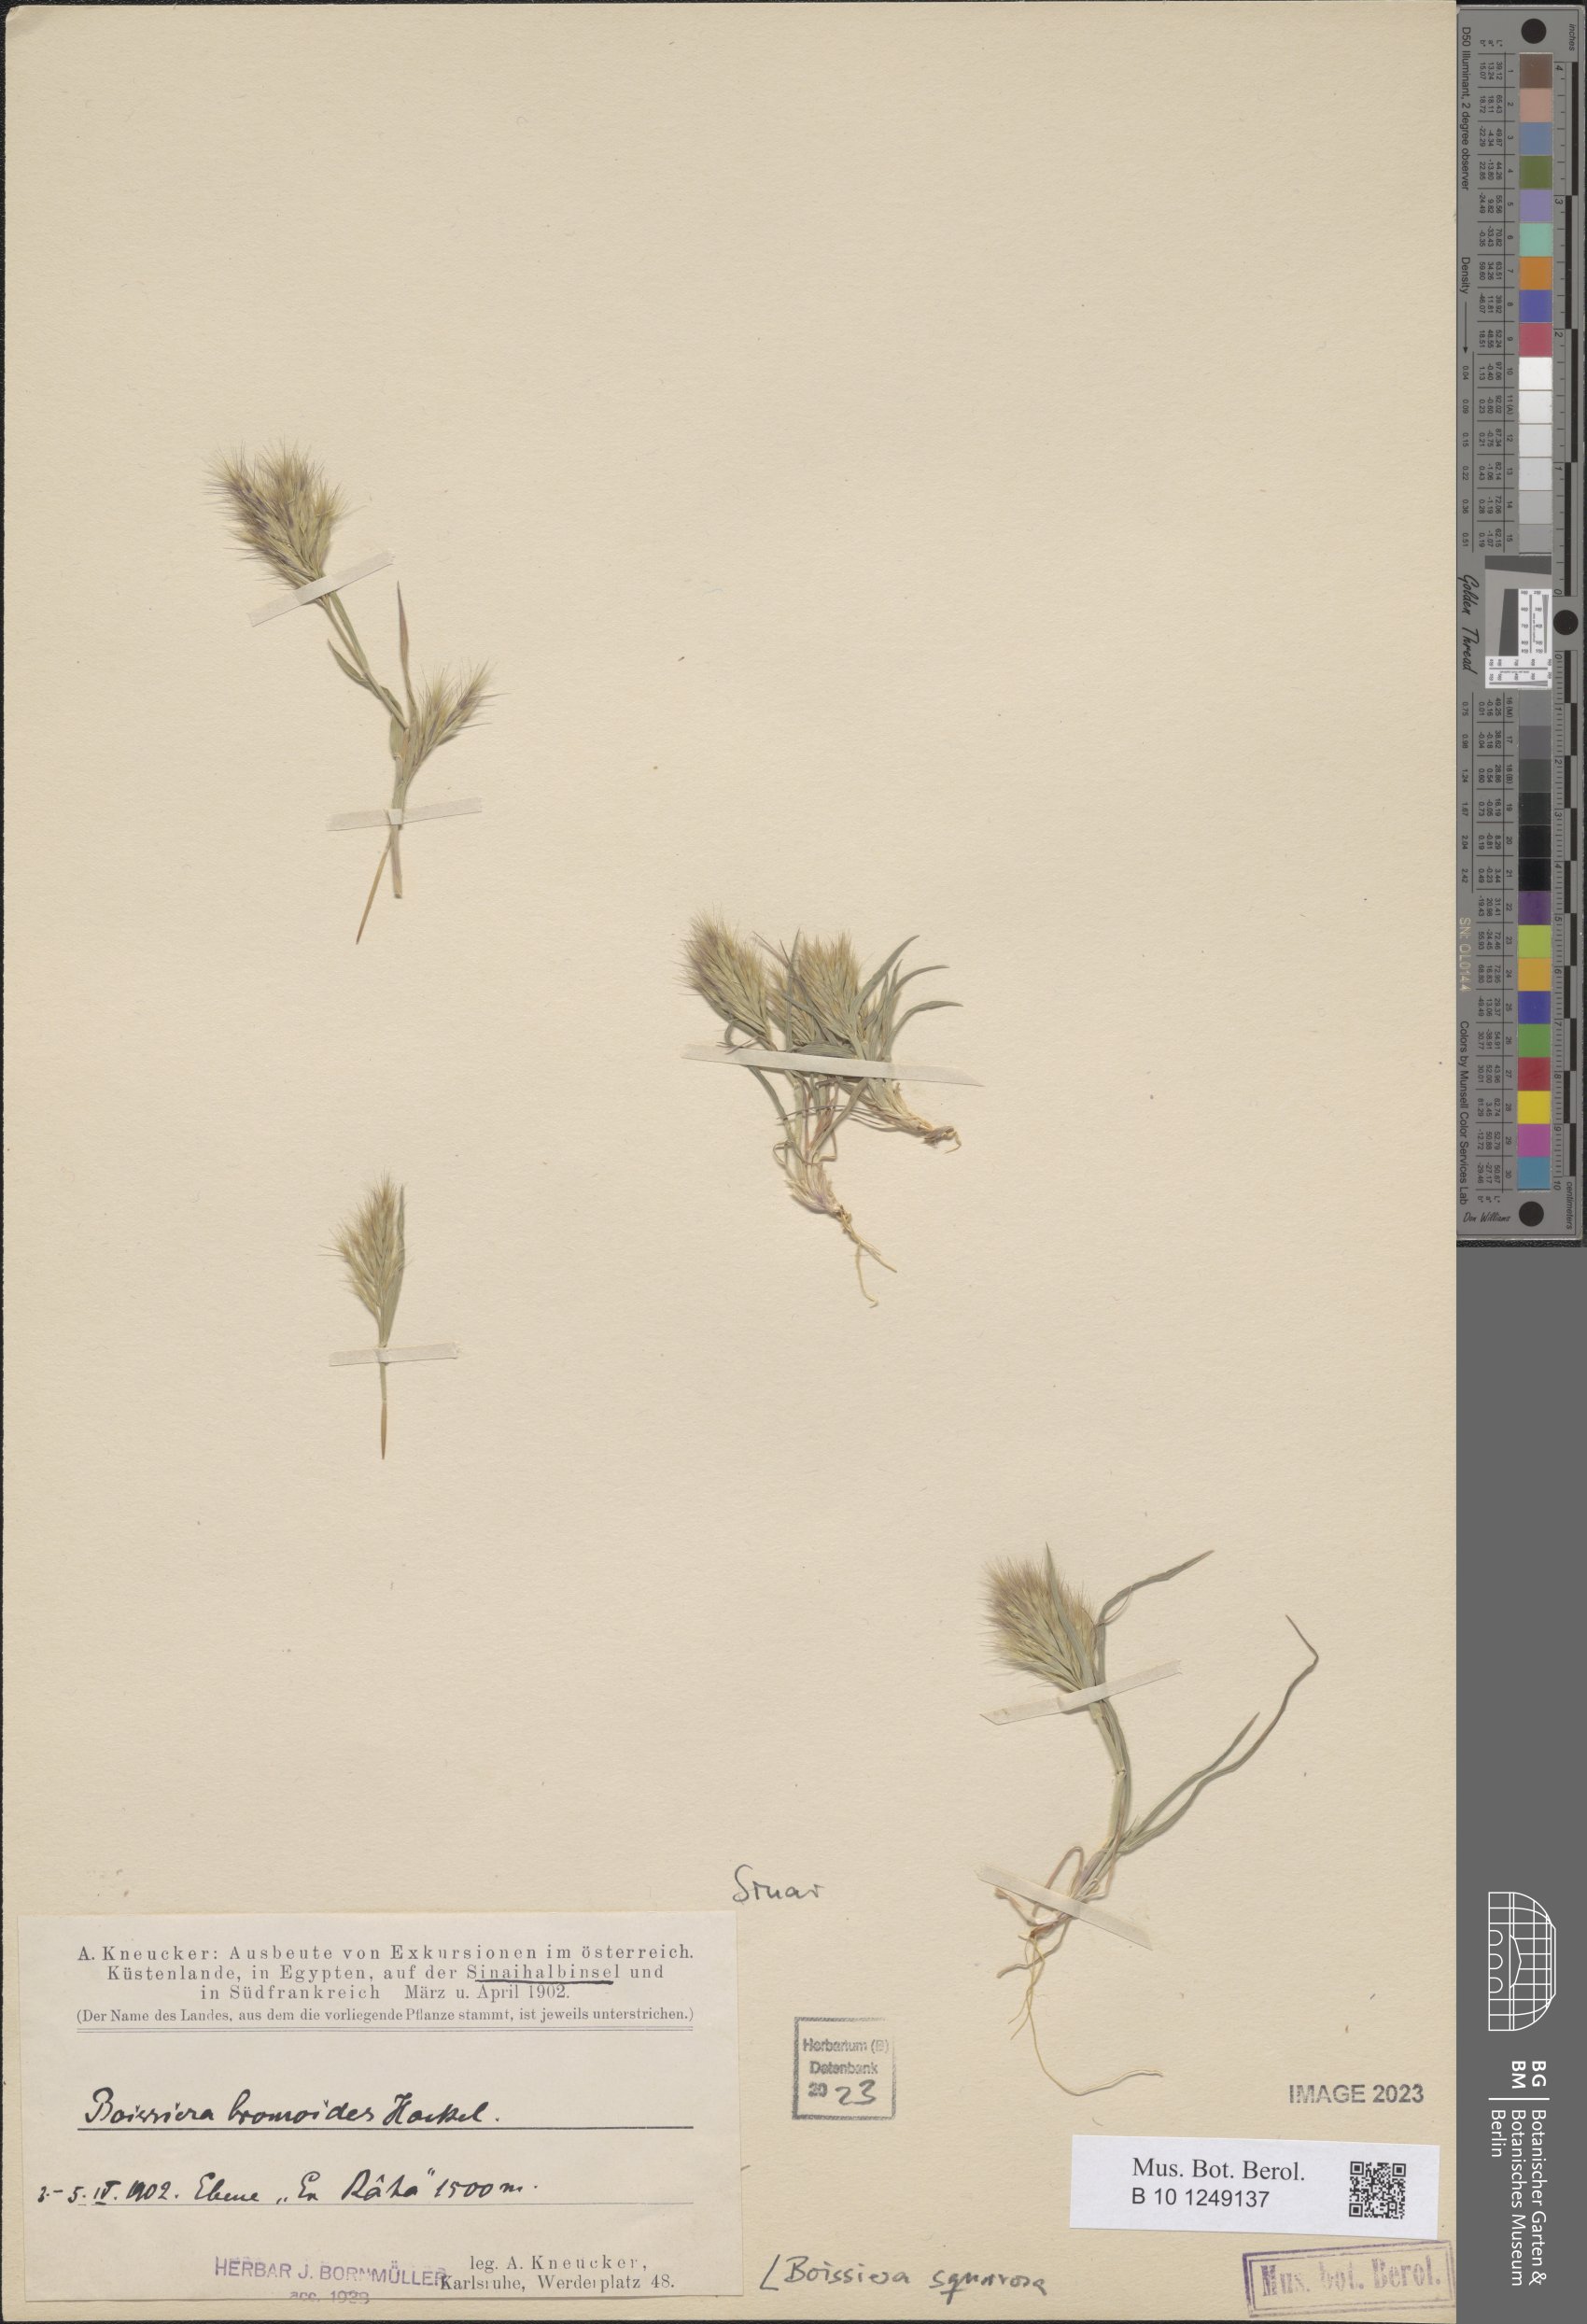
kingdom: Plantae
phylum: Tracheophyta
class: Liliopsida
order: Poales
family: Poaceae
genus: Bromus
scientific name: Bromus pumilio
